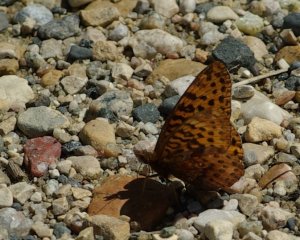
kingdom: Animalia
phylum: Arthropoda
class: Insecta
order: Lepidoptera
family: Nymphalidae
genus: Boloria
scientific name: Boloria frigga
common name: Frigga Fritillary
